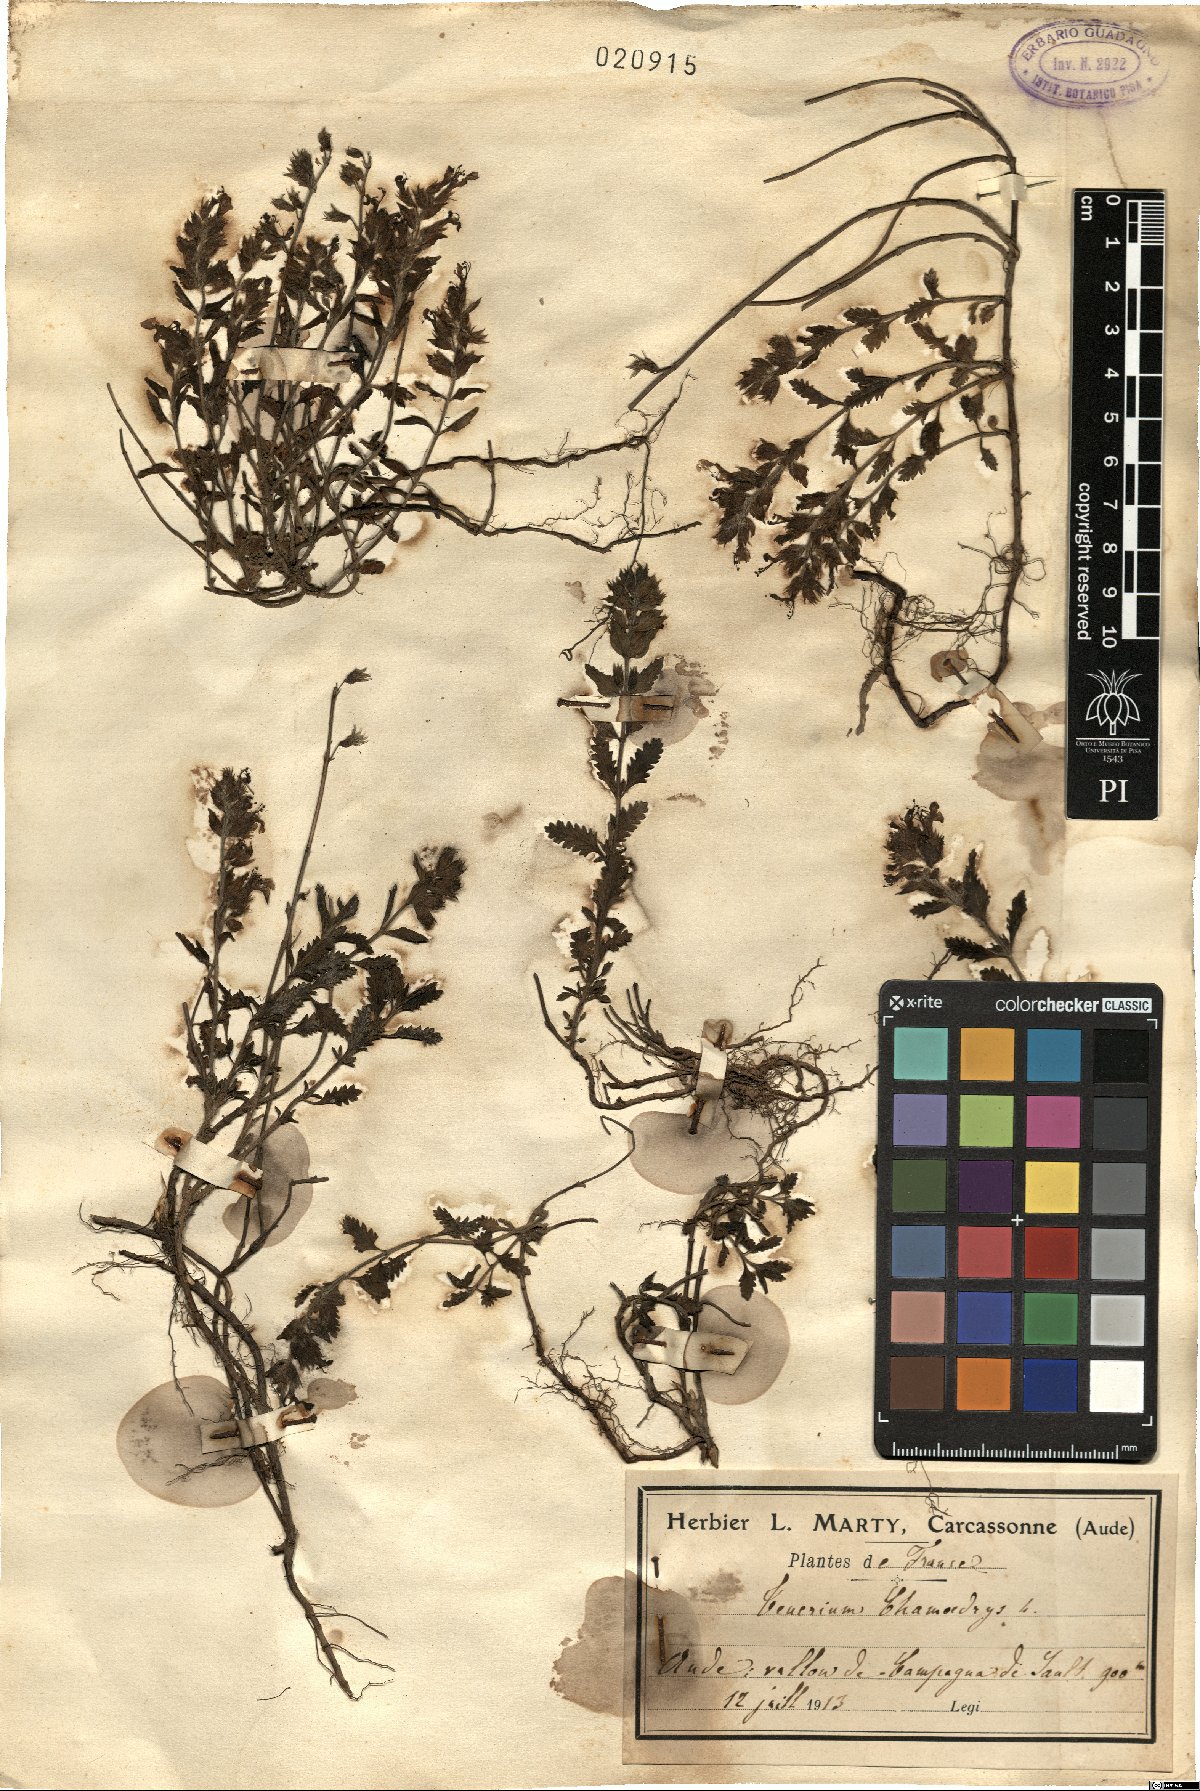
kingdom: Plantae
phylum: Tracheophyta
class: Magnoliopsida
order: Lamiales
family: Lamiaceae
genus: Teucrium
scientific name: Teucrium chamaedrys
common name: Wall germander
